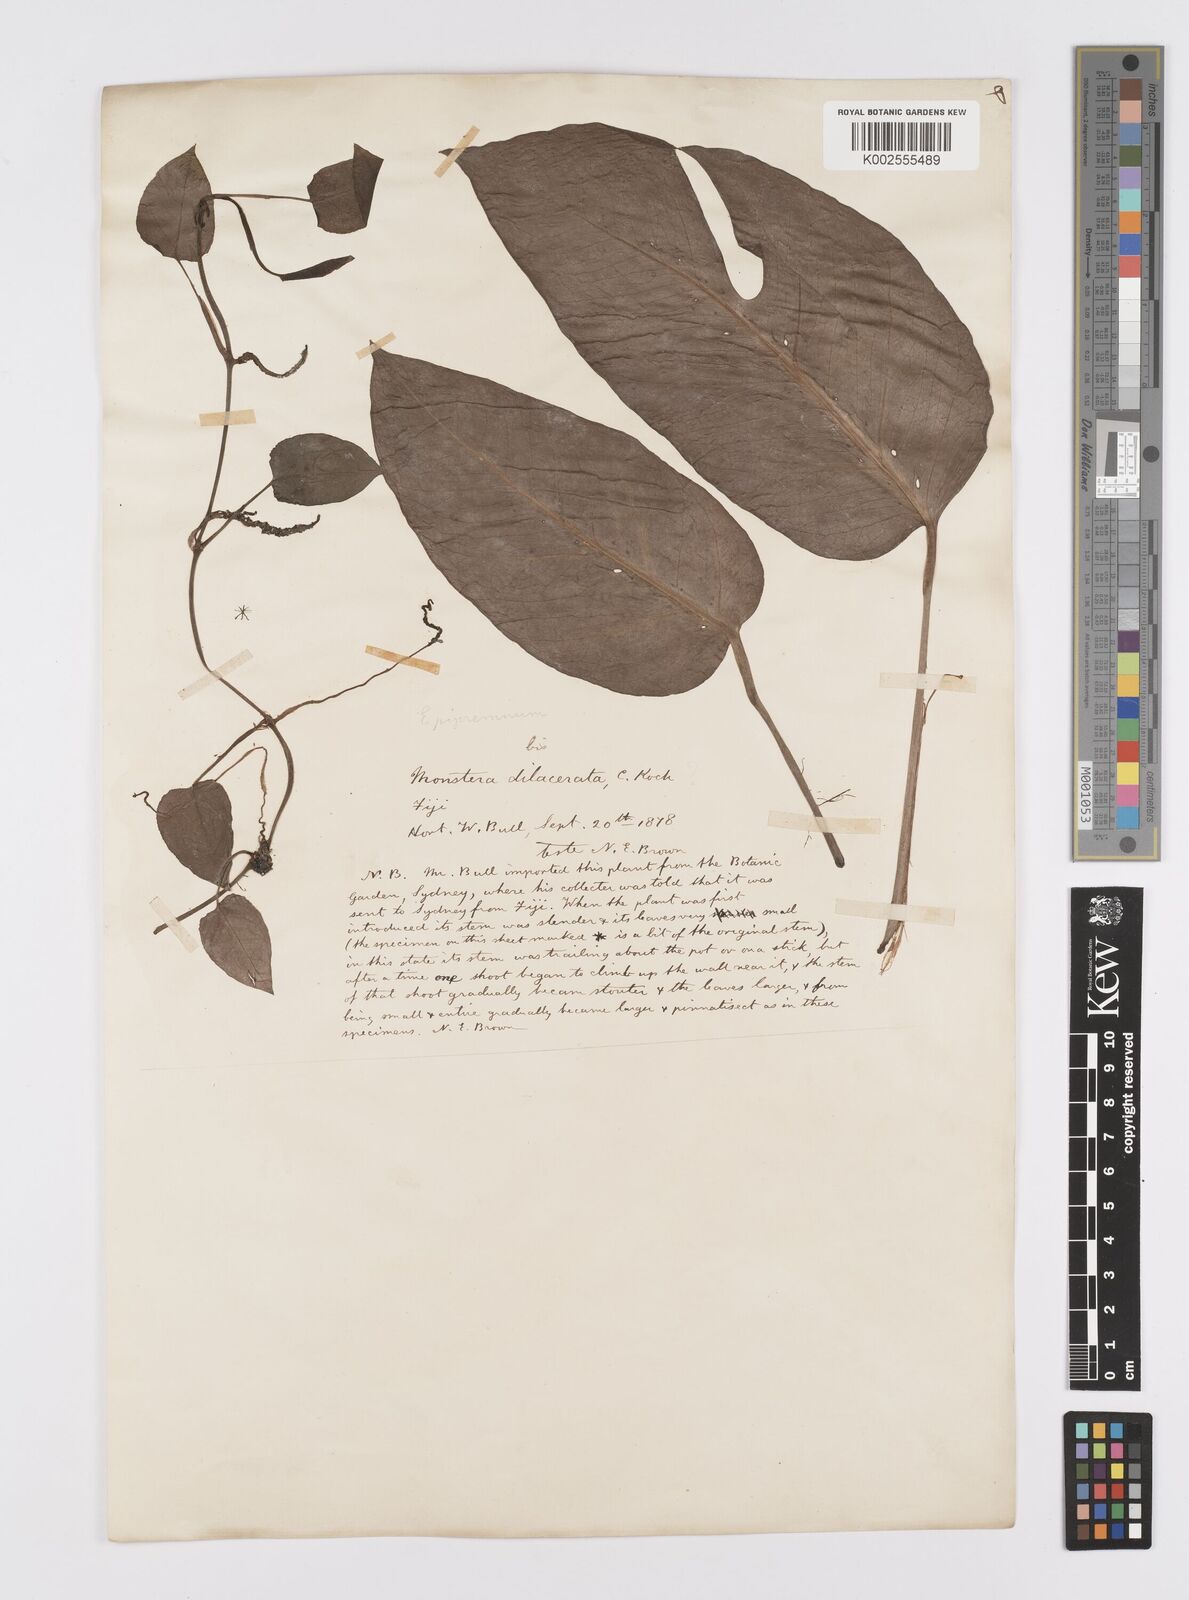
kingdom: Plantae
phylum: Tracheophyta
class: Liliopsida
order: Alismatales
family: Araceae
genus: Epipremnum
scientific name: Epipremnum pinnatum
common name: Centipede tongavine
